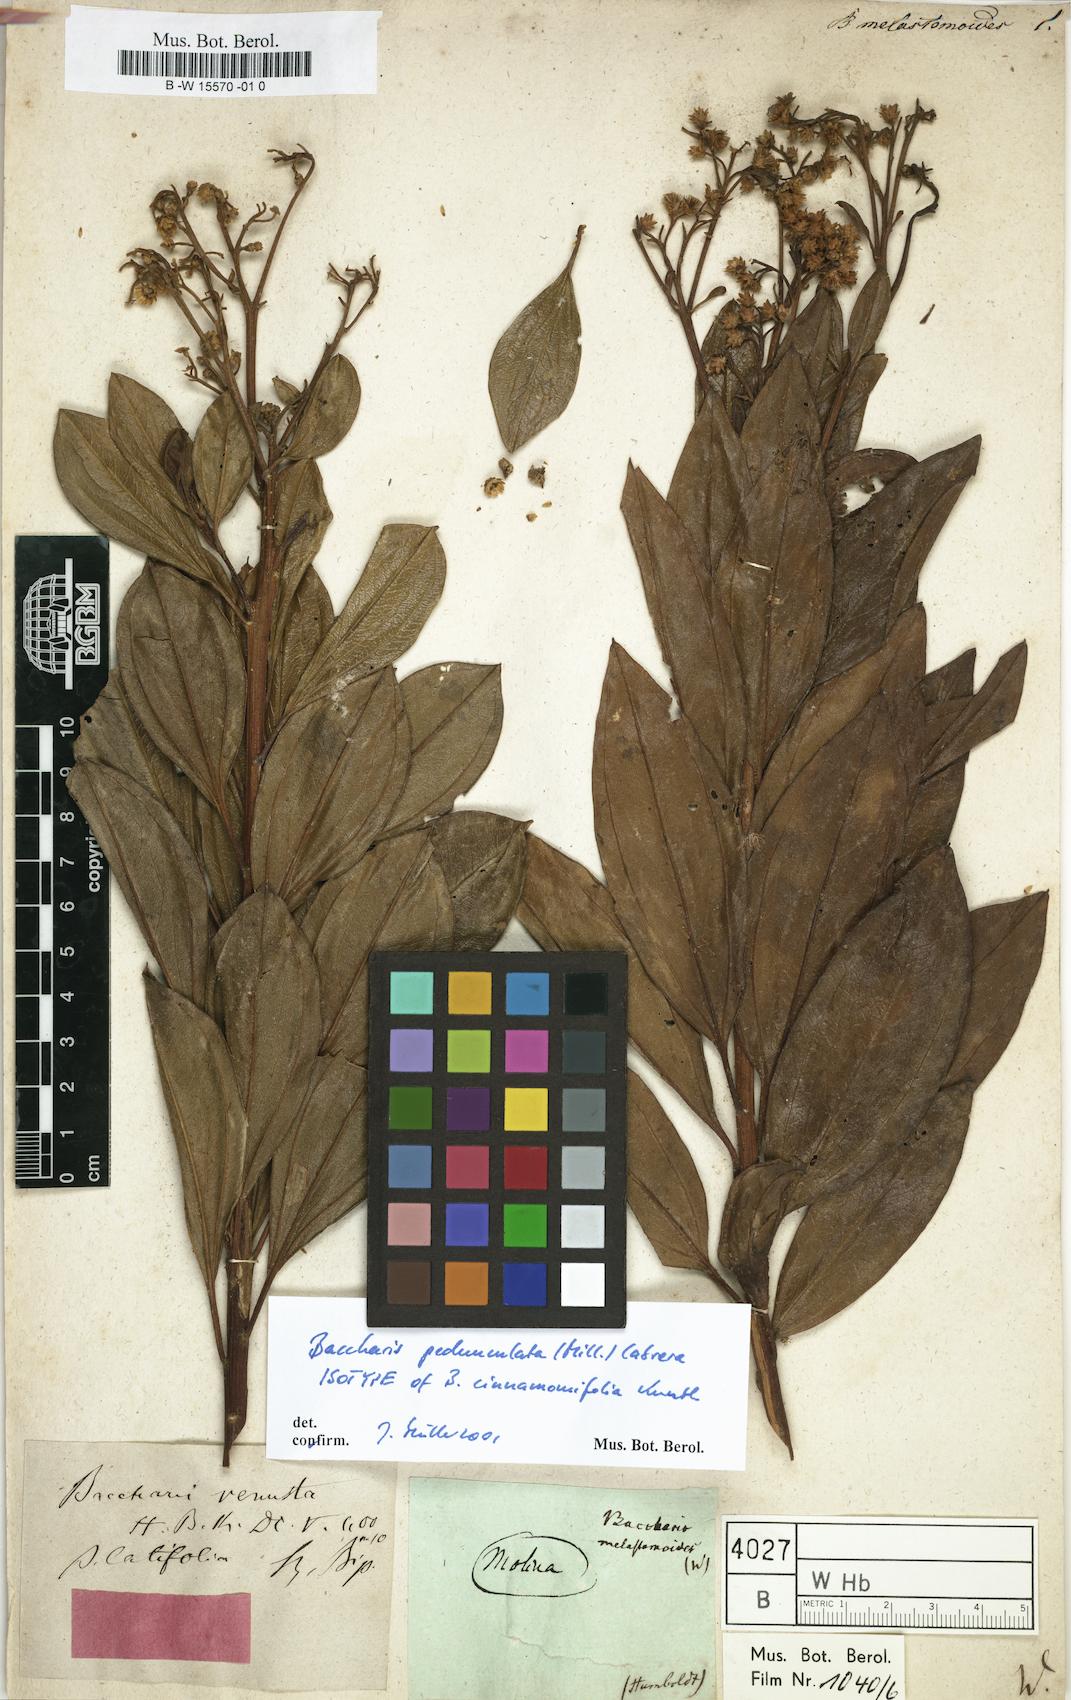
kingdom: Plantae
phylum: Tracheophyta
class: Magnoliopsida
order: Asterales
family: Asteraceae
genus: Baccharis
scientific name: Baccharis
